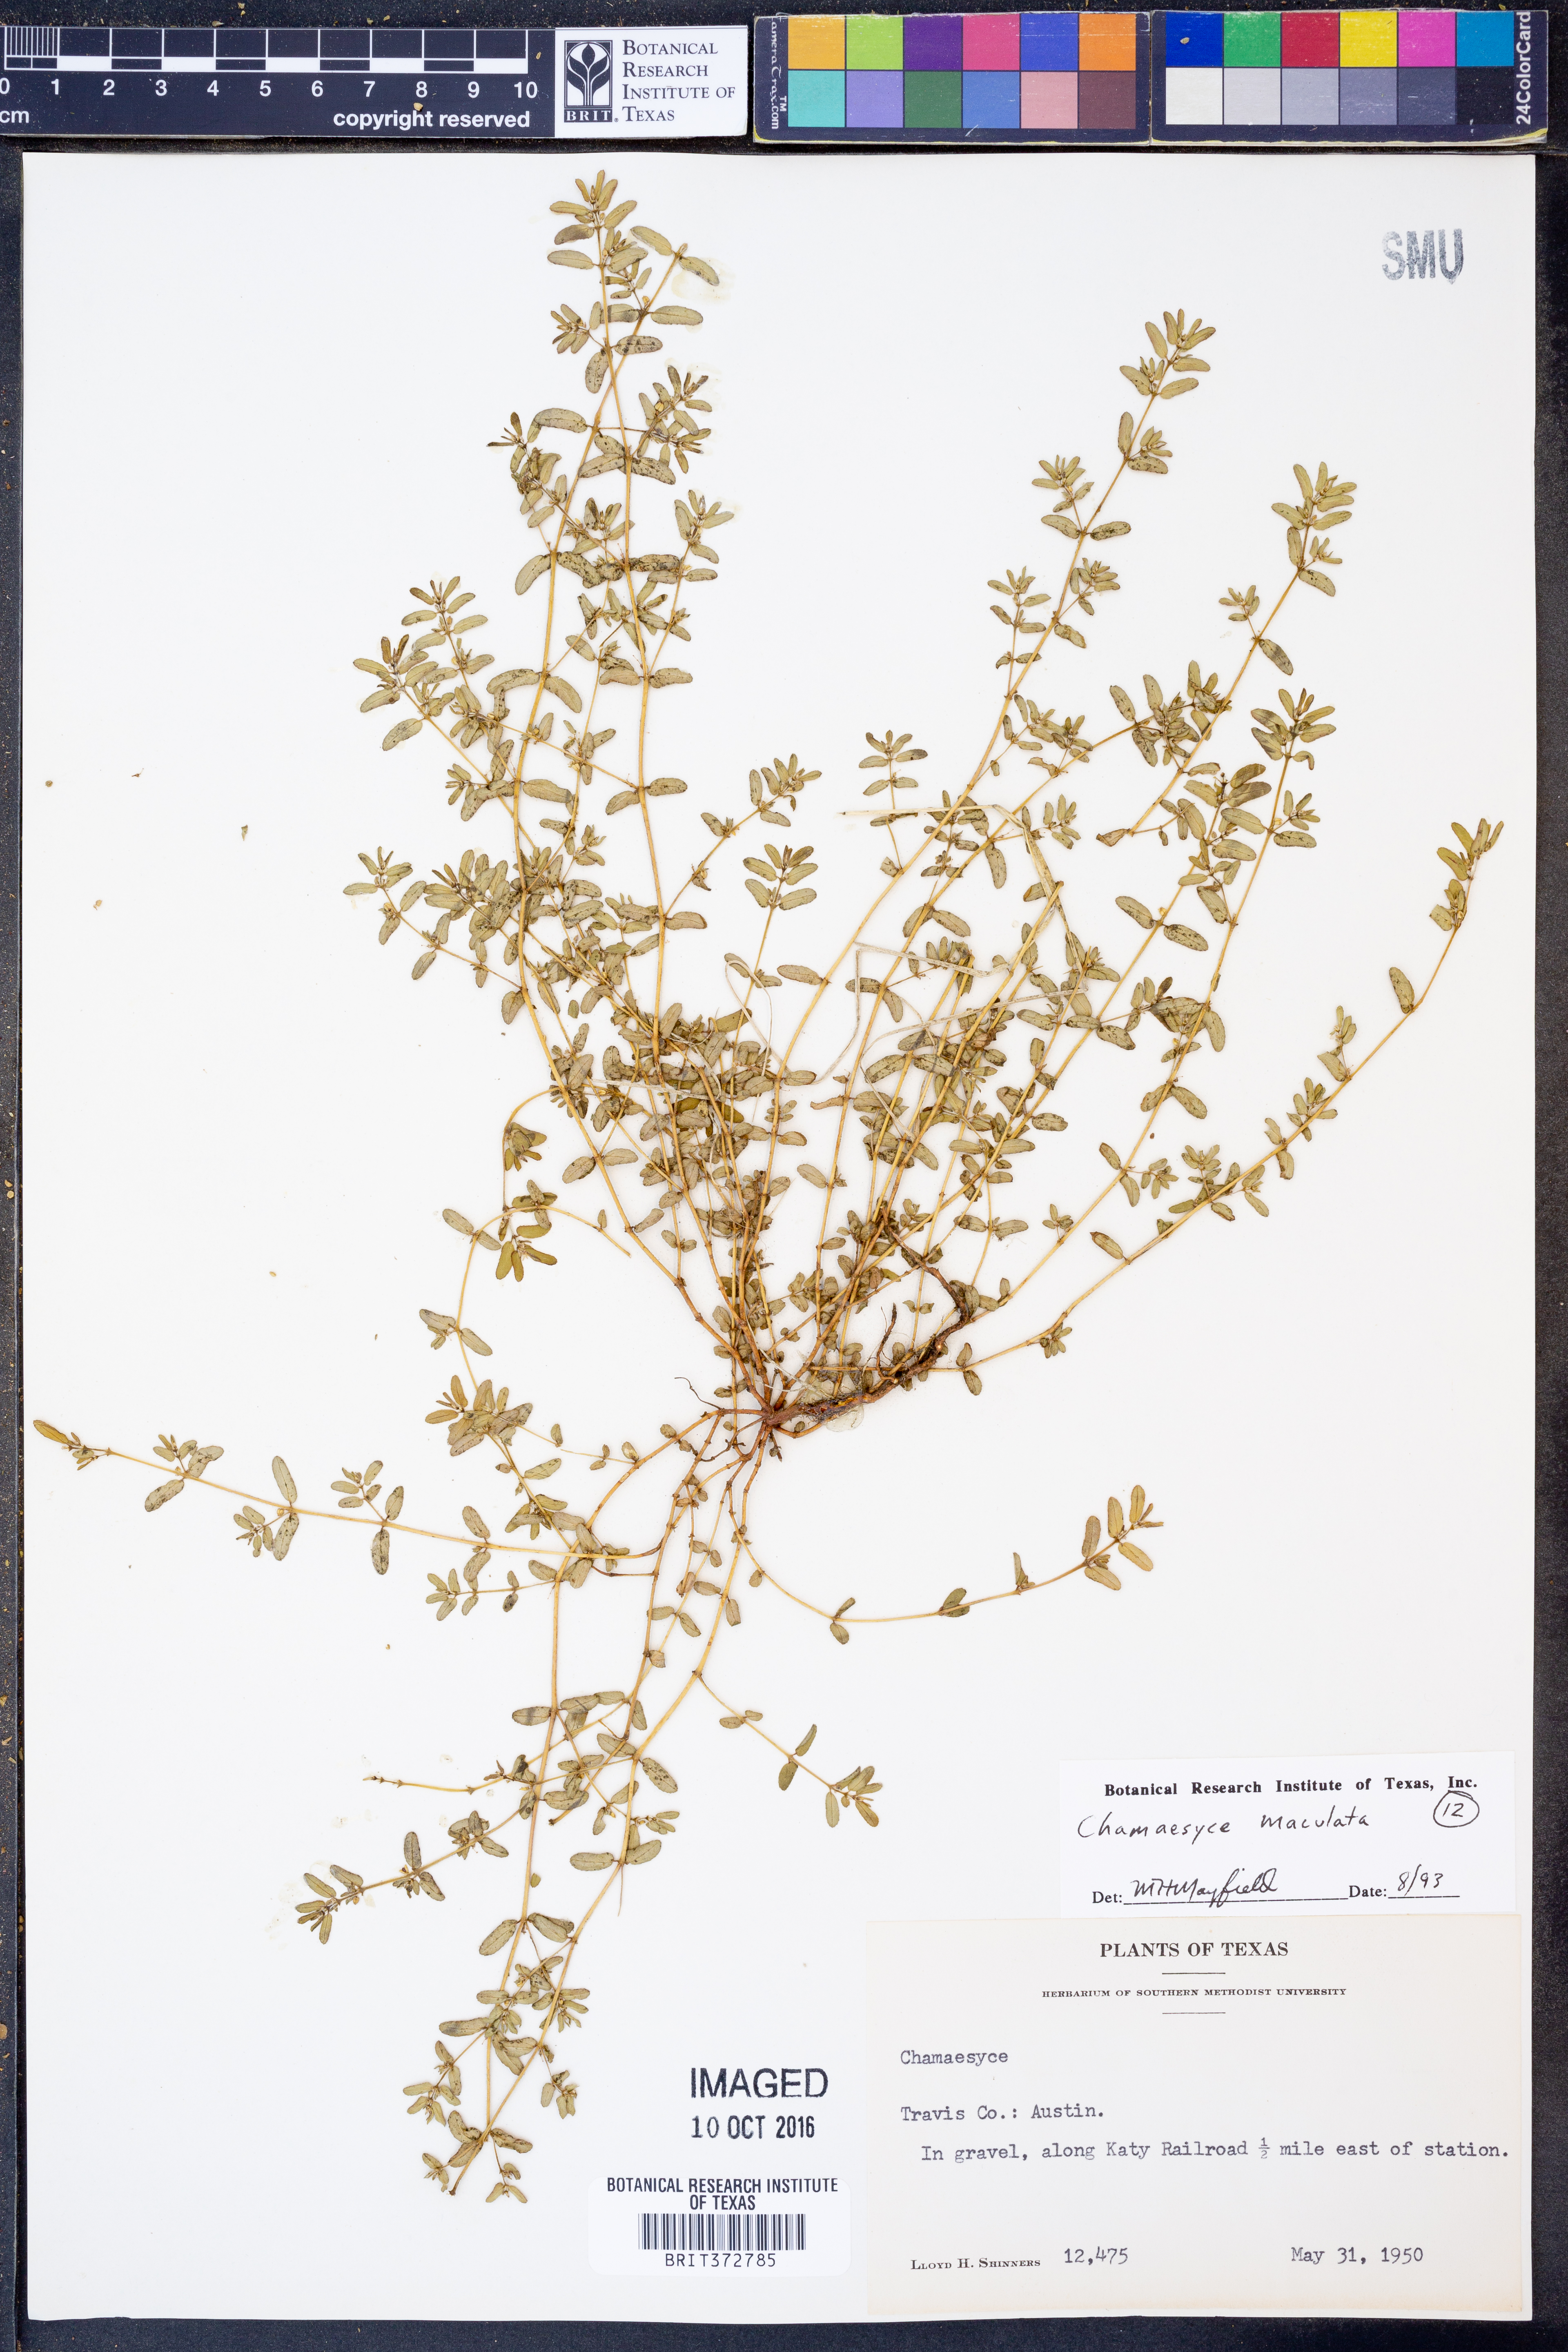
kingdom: Plantae
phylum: Tracheophyta
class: Magnoliopsida
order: Malpighiales
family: Euphorbiaceae
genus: Euphorbia
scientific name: Euphorbia maculata
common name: Spotted spurge
